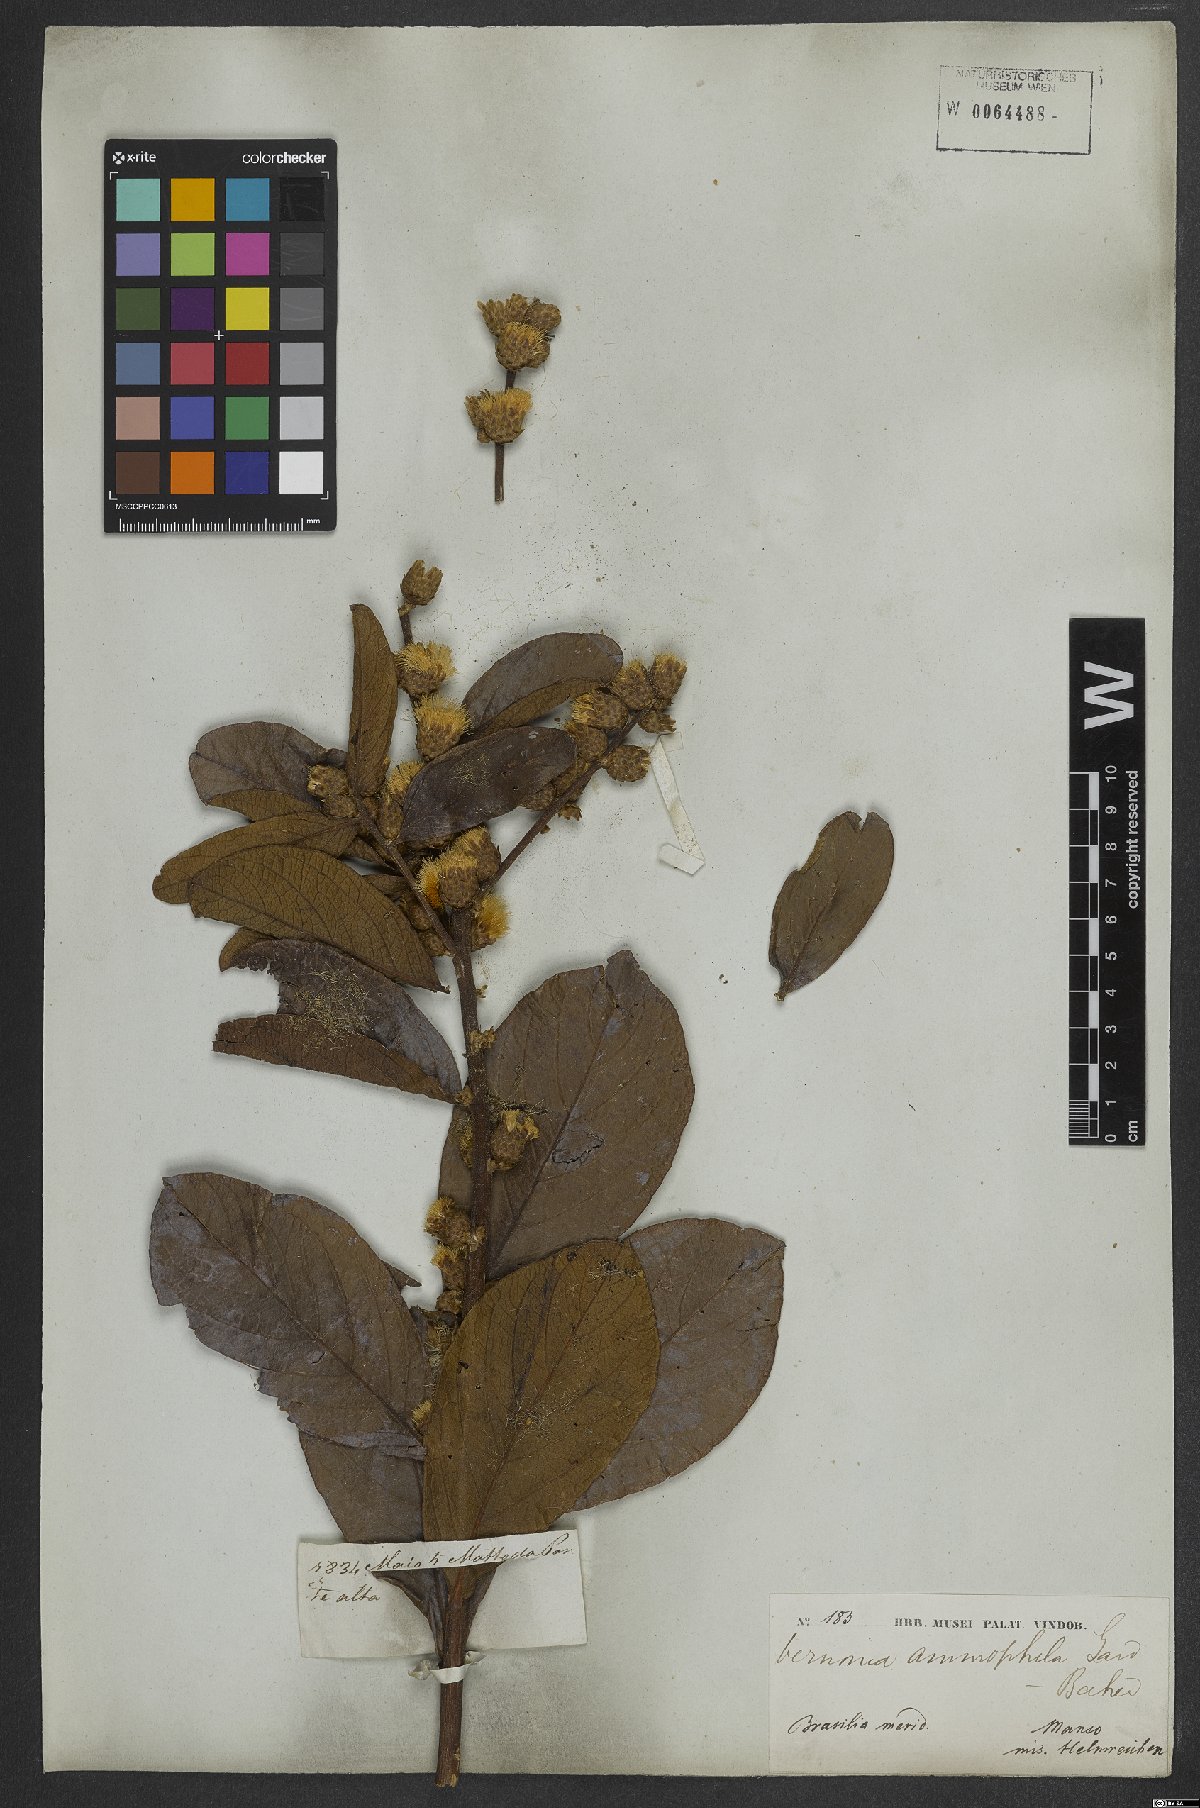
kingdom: Plantae
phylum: Tracheophyta
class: Magnoliopsida
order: Asterales
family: Asteraceae
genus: Lessingianthus
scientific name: Lessingianthus ammophilus
